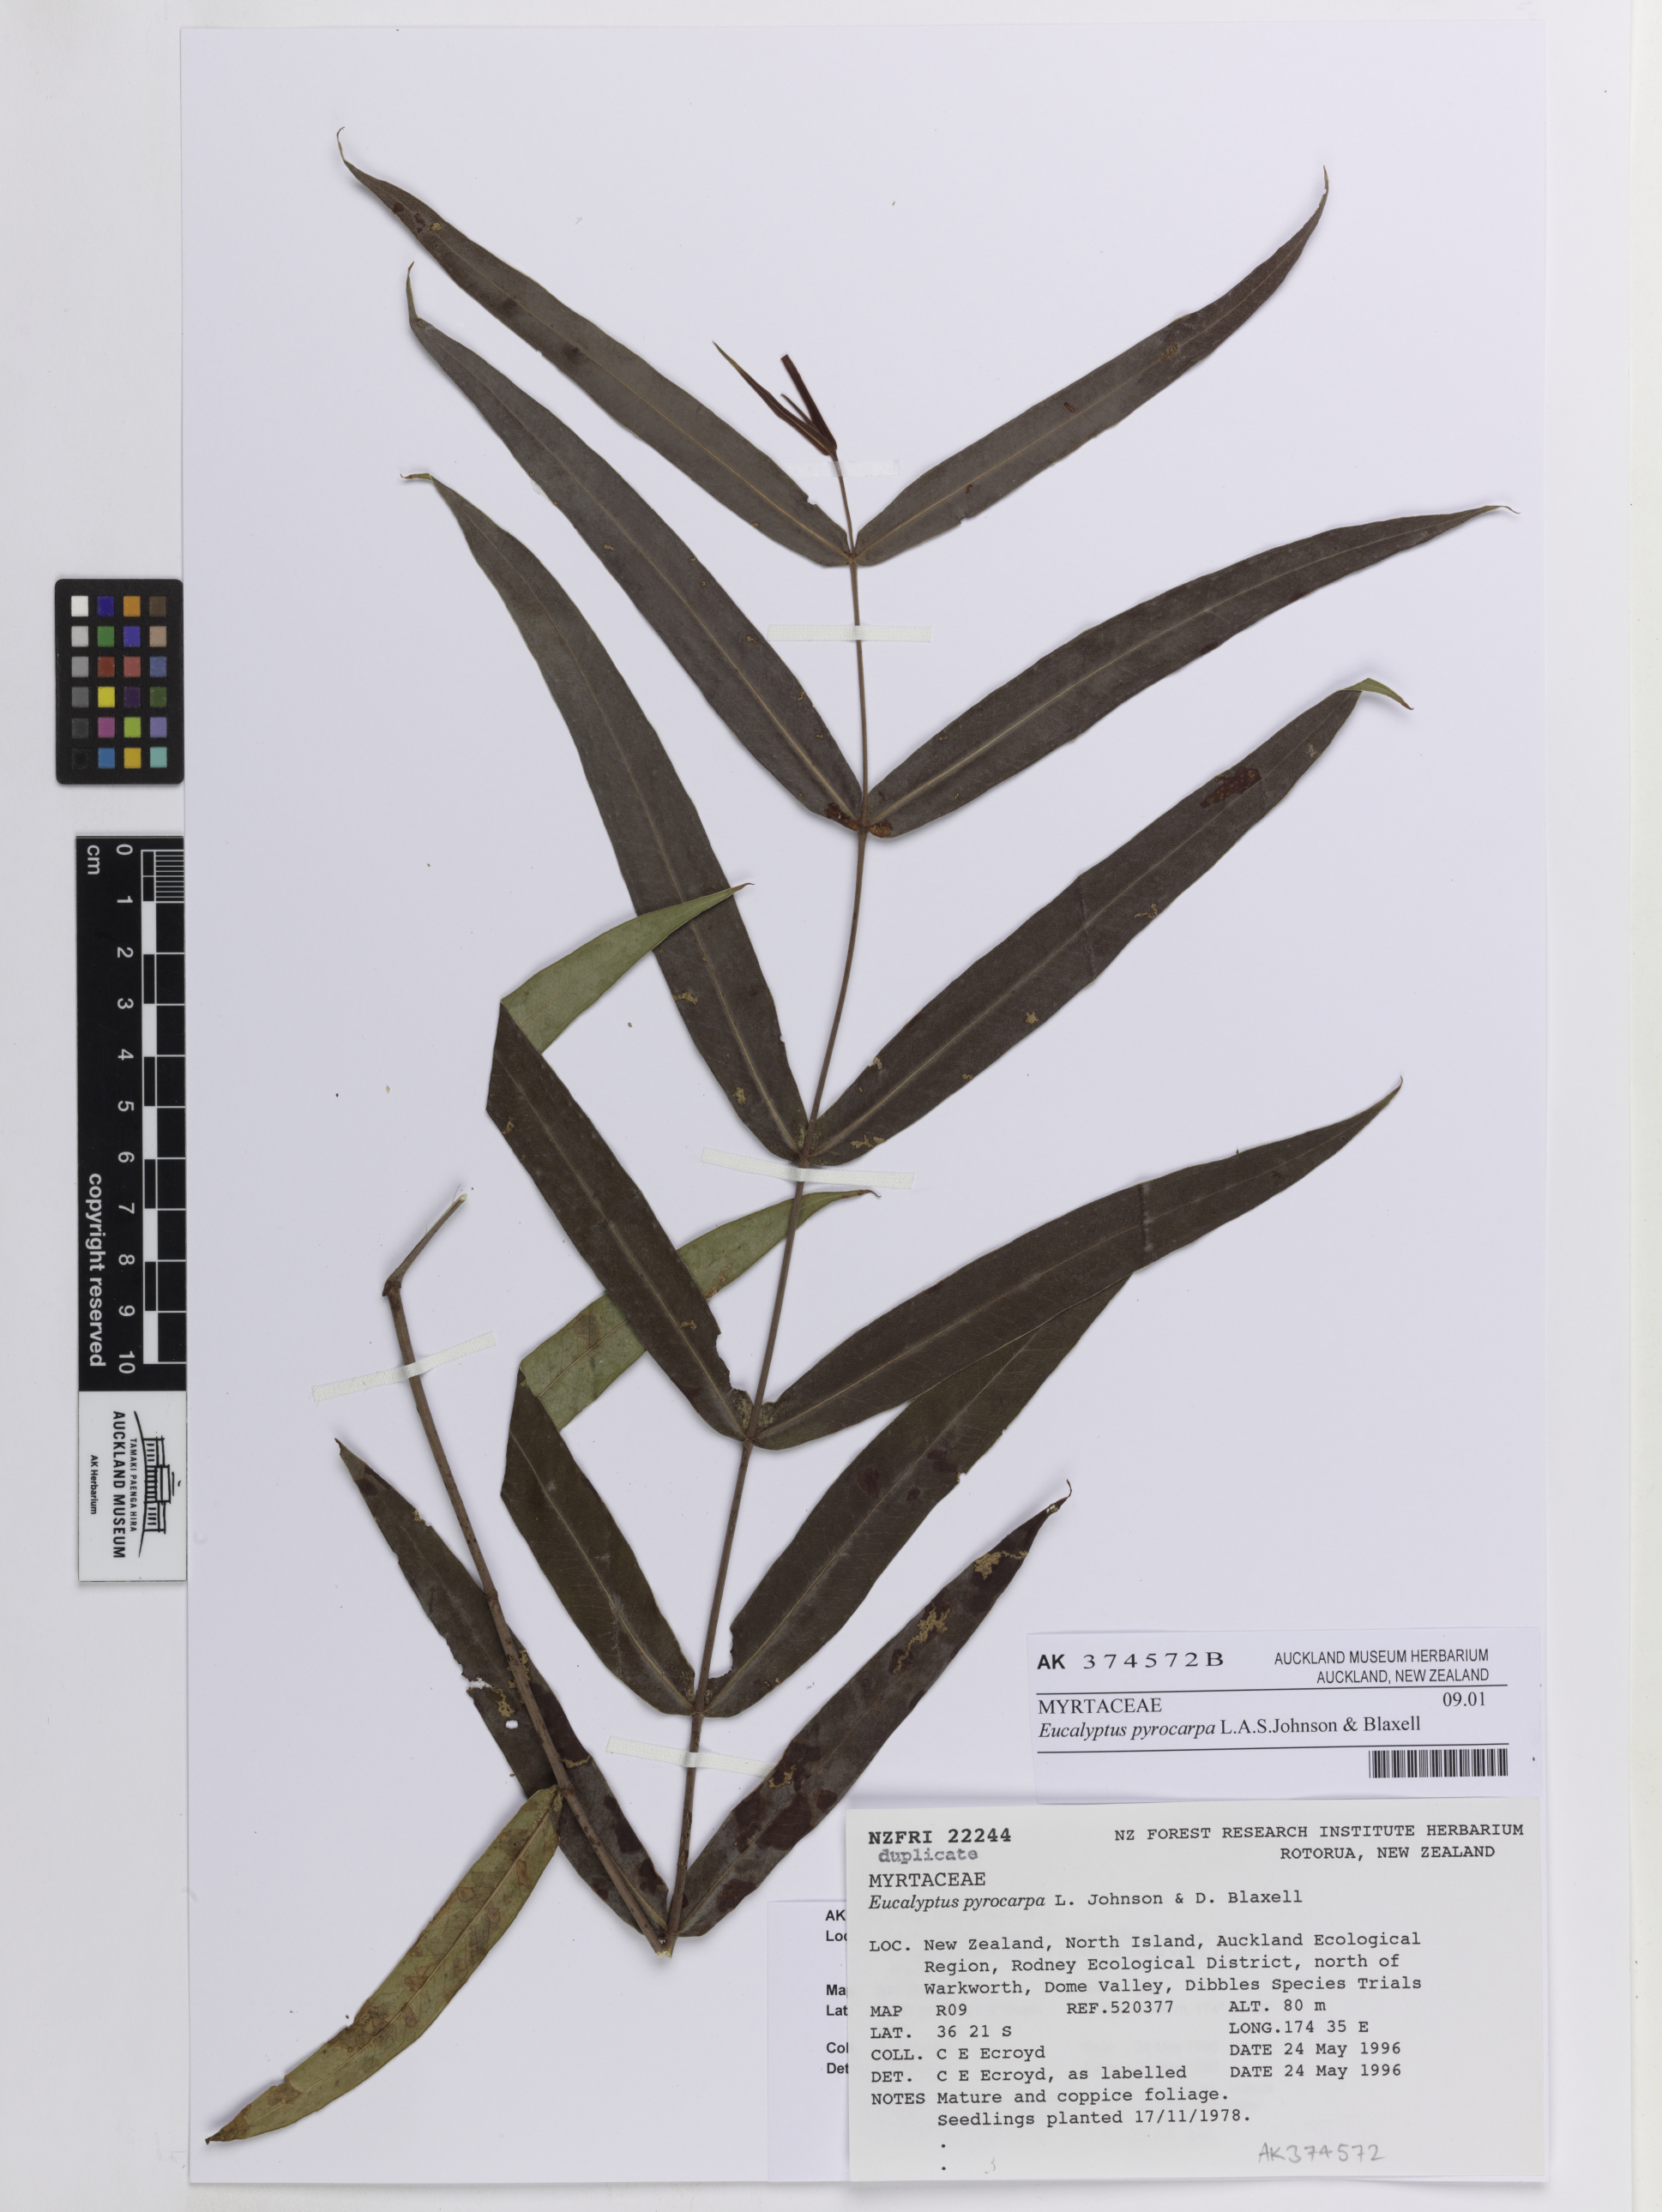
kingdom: Plantae
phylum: Tracheophyta
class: Magnoliopsida
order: Myrtales
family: Myrtaceae
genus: Eucalyptus
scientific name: Eucalyptus pyrocarpa
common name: Large-fruited-blackbutt
